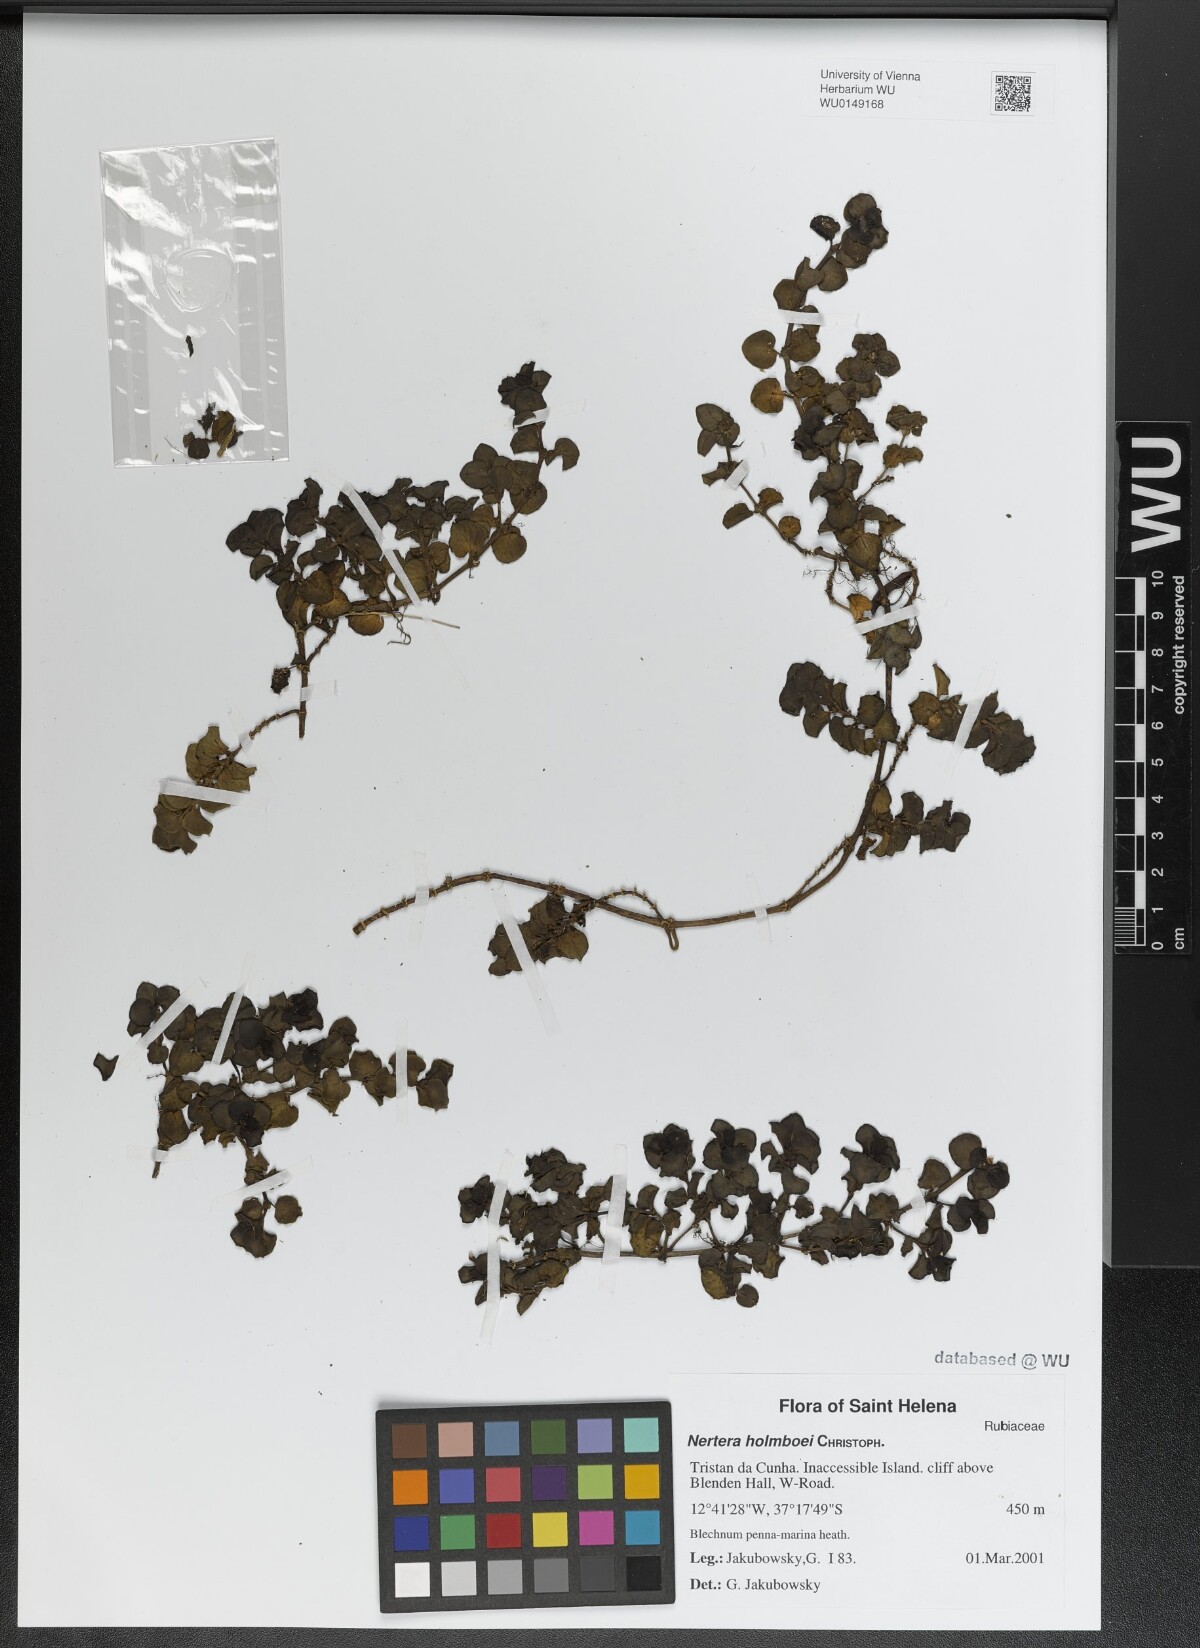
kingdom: Plantae
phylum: Tracheophyta
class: Magnoliopsida
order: Gentianales
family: Rubiaceae
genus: Nertera
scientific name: Nertera holmboei
